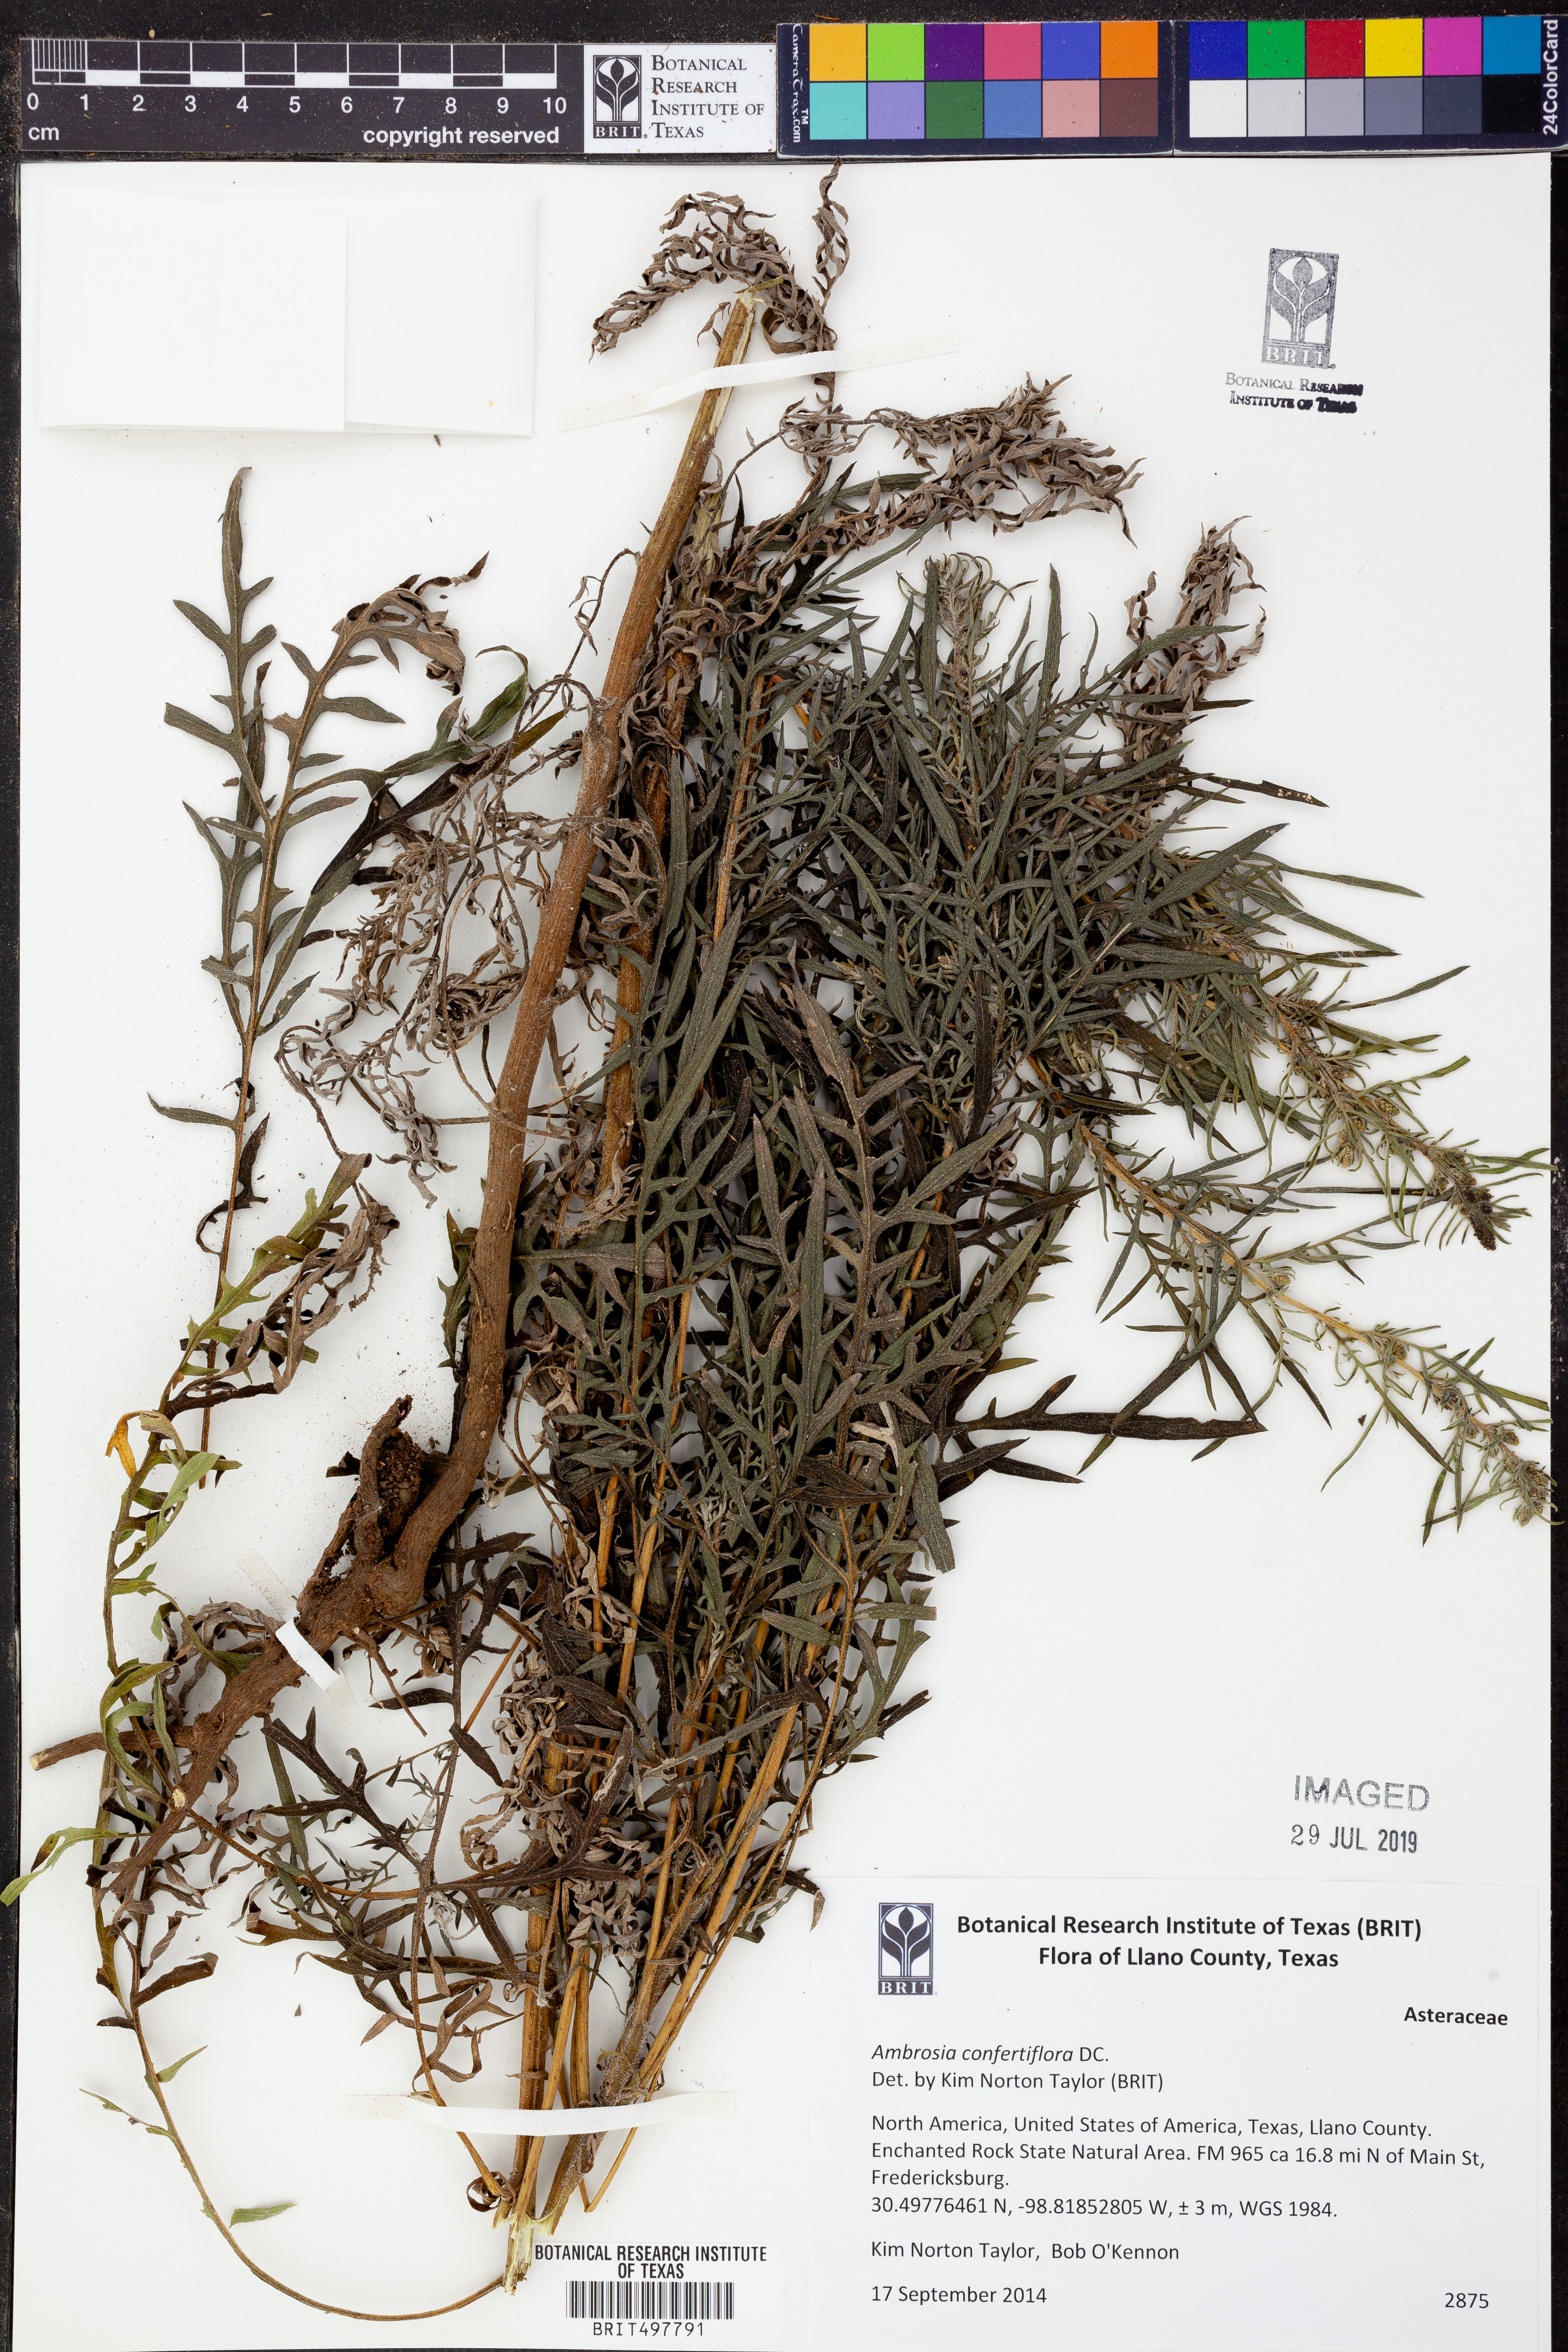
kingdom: Plantae
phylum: Tracheophyta
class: Magnoliopsida
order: Asterales
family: Asteraceae
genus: Ambrosia
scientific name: Ambrosia confertiflora
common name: Bur ragweed
